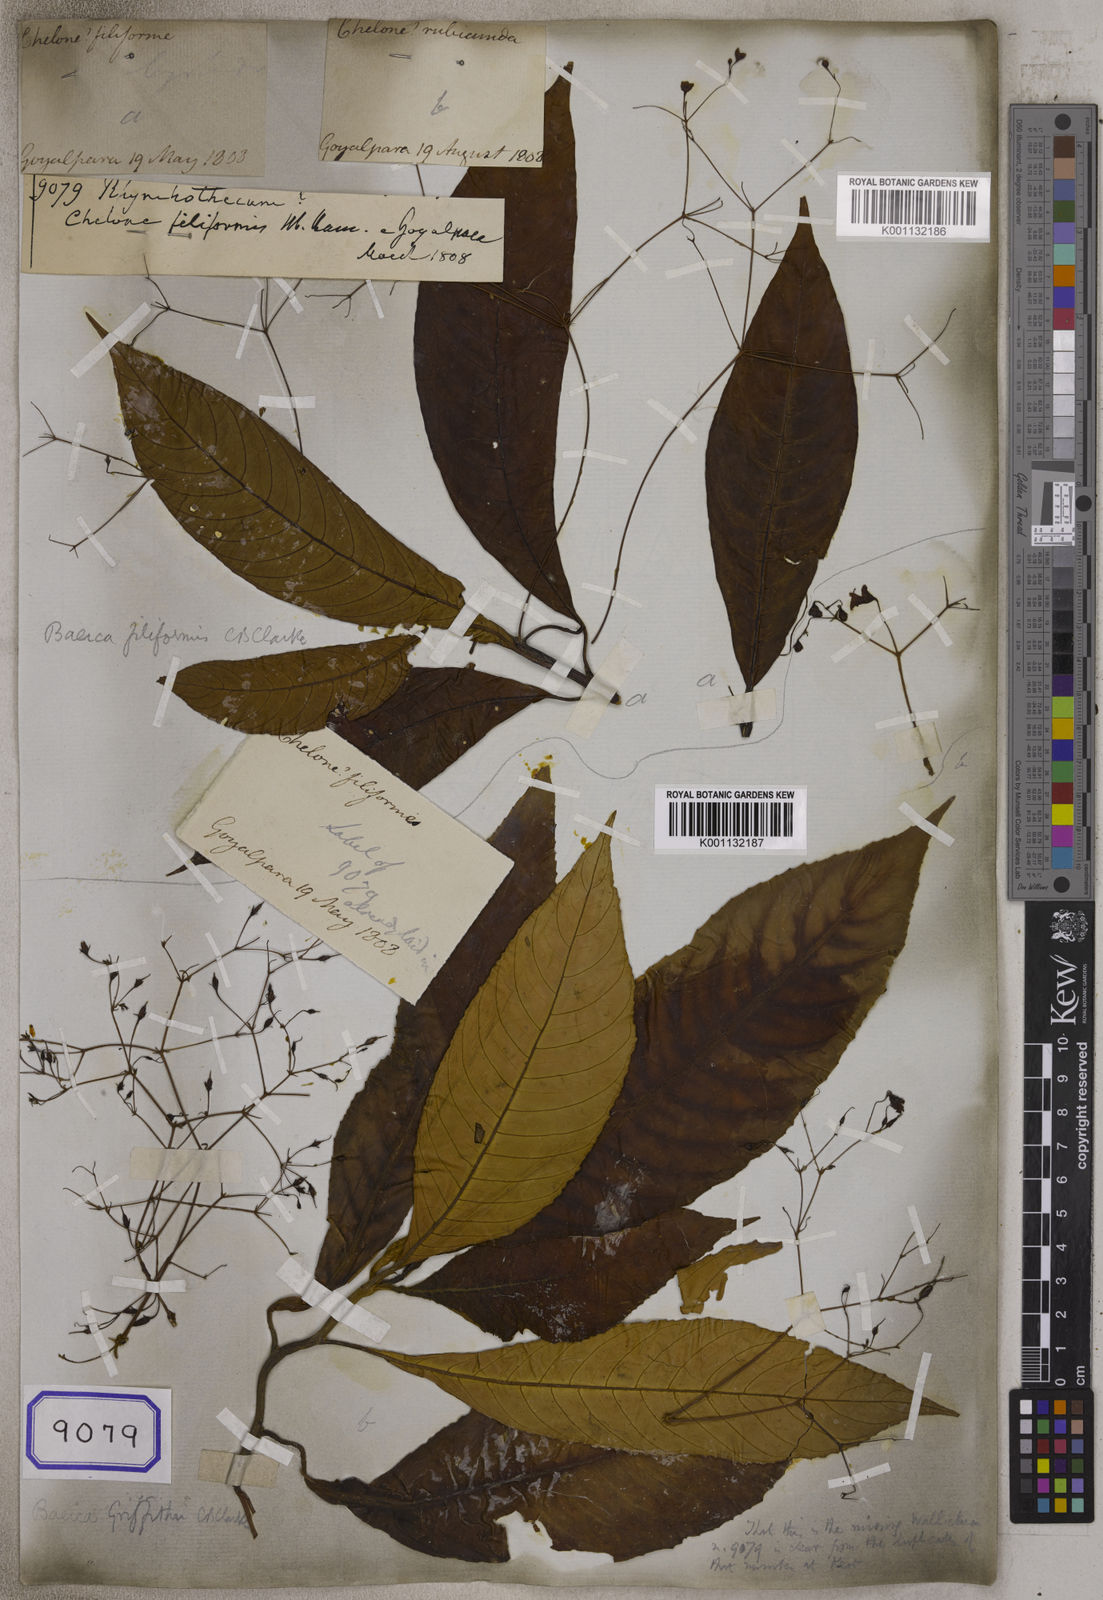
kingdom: Plantae
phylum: Tracheophyta
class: Magnoliopsida
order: Geraniales
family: Vivianiaceae
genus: Rhynchotheca
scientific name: Rhynchotheca
